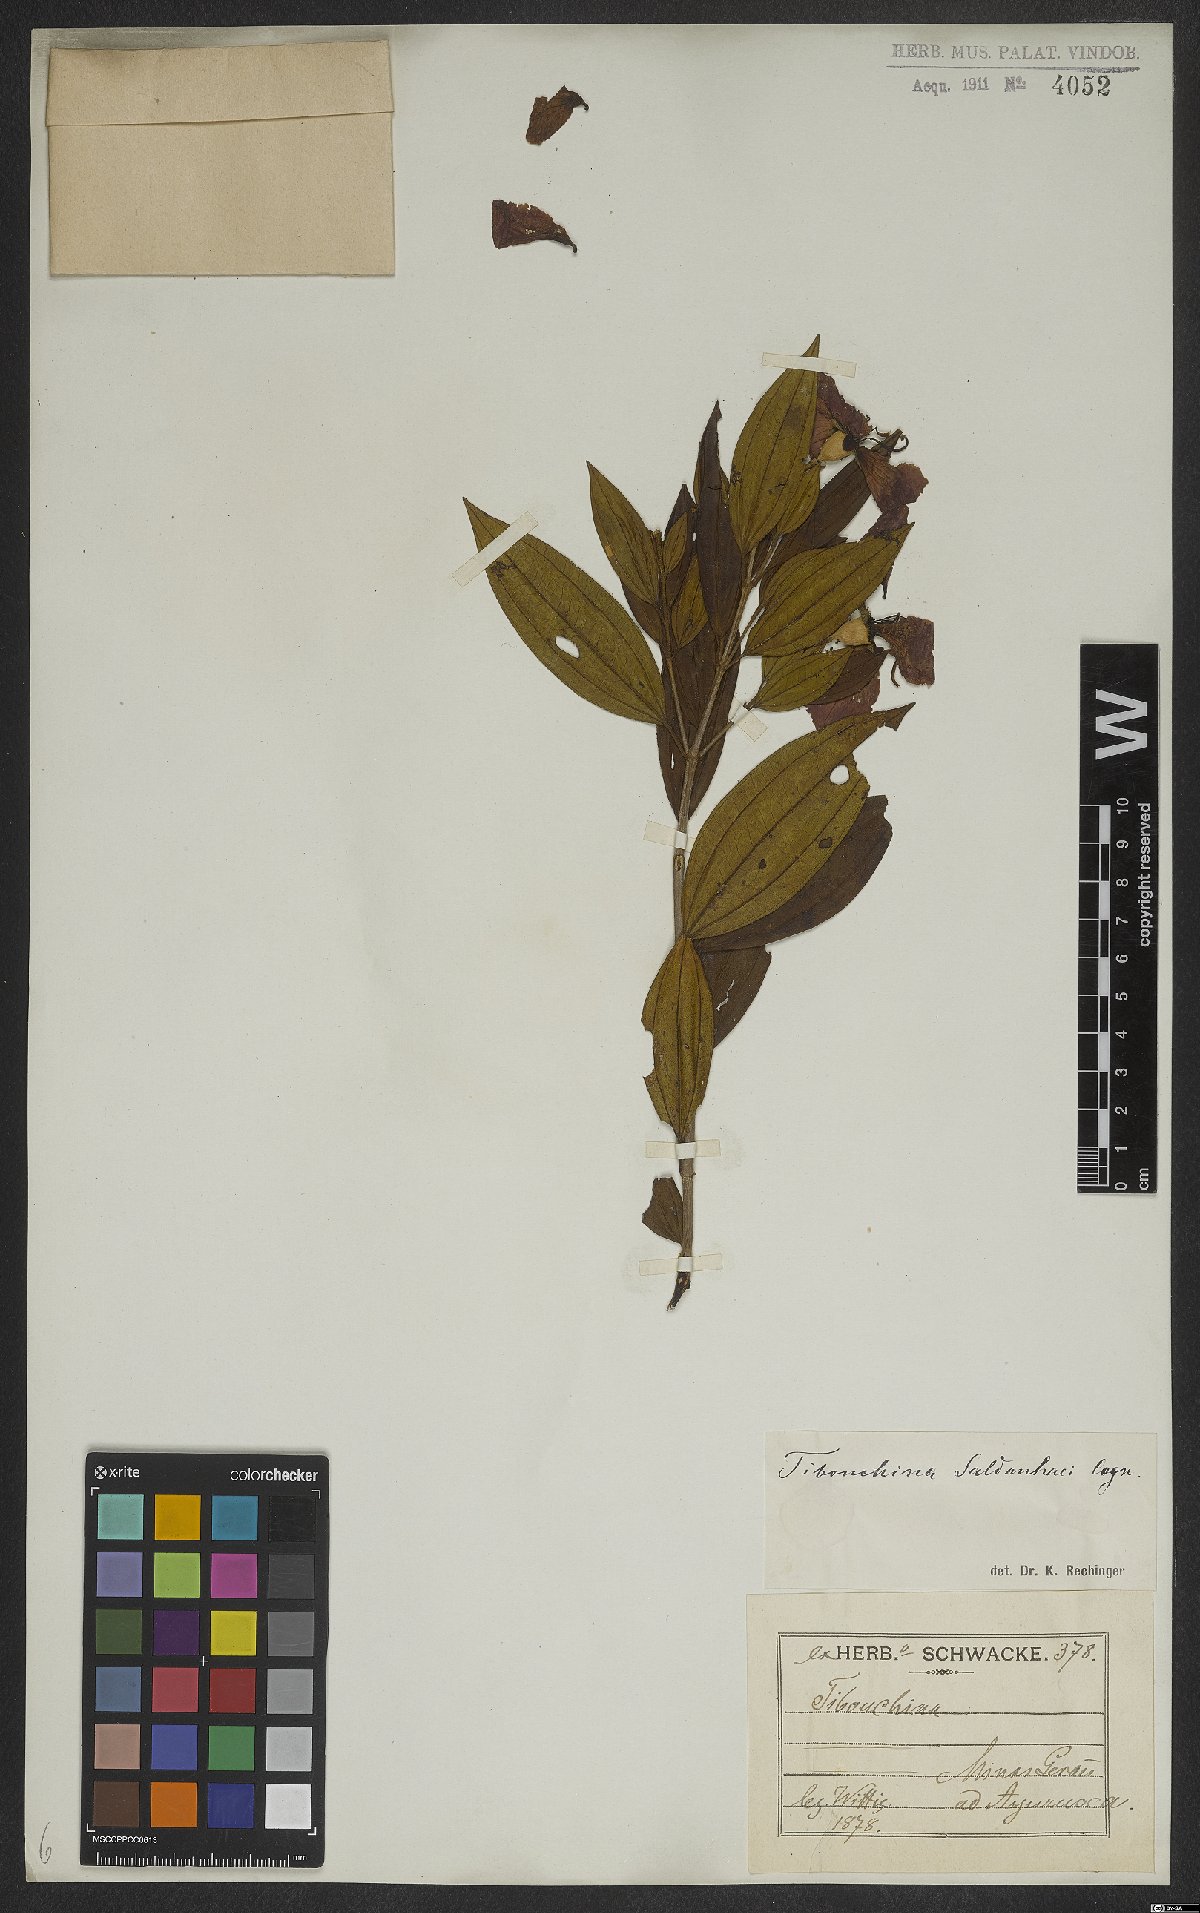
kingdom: Plantae
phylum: Tracheophyta
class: Magnoliopsida
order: Myrtales
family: Melastomataceae
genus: Pleroma
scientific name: Pleroma raddianum
